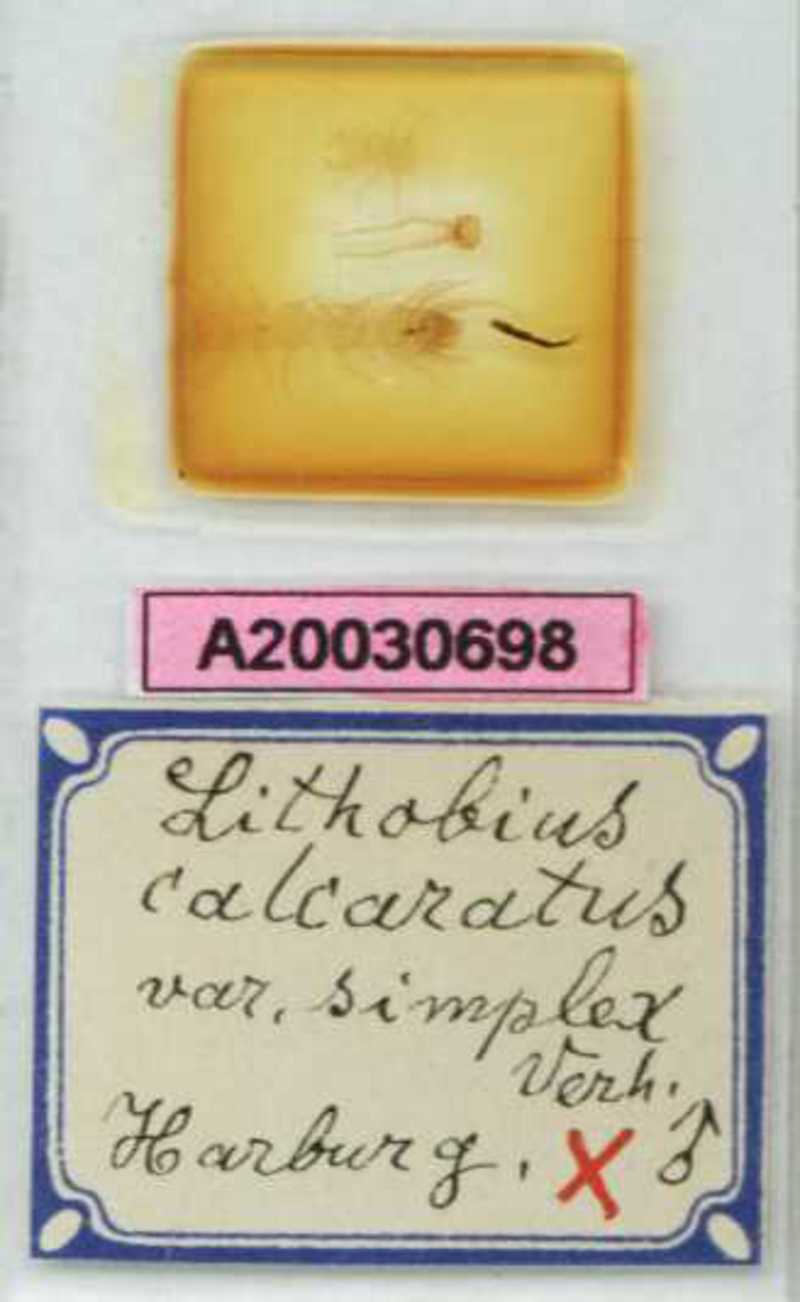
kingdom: Animalia
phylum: Arthropoda
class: Chilopoda
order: Lithobiomorpha
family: Lithobiidae
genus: Lithobius
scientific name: Lithobius calcaratus
